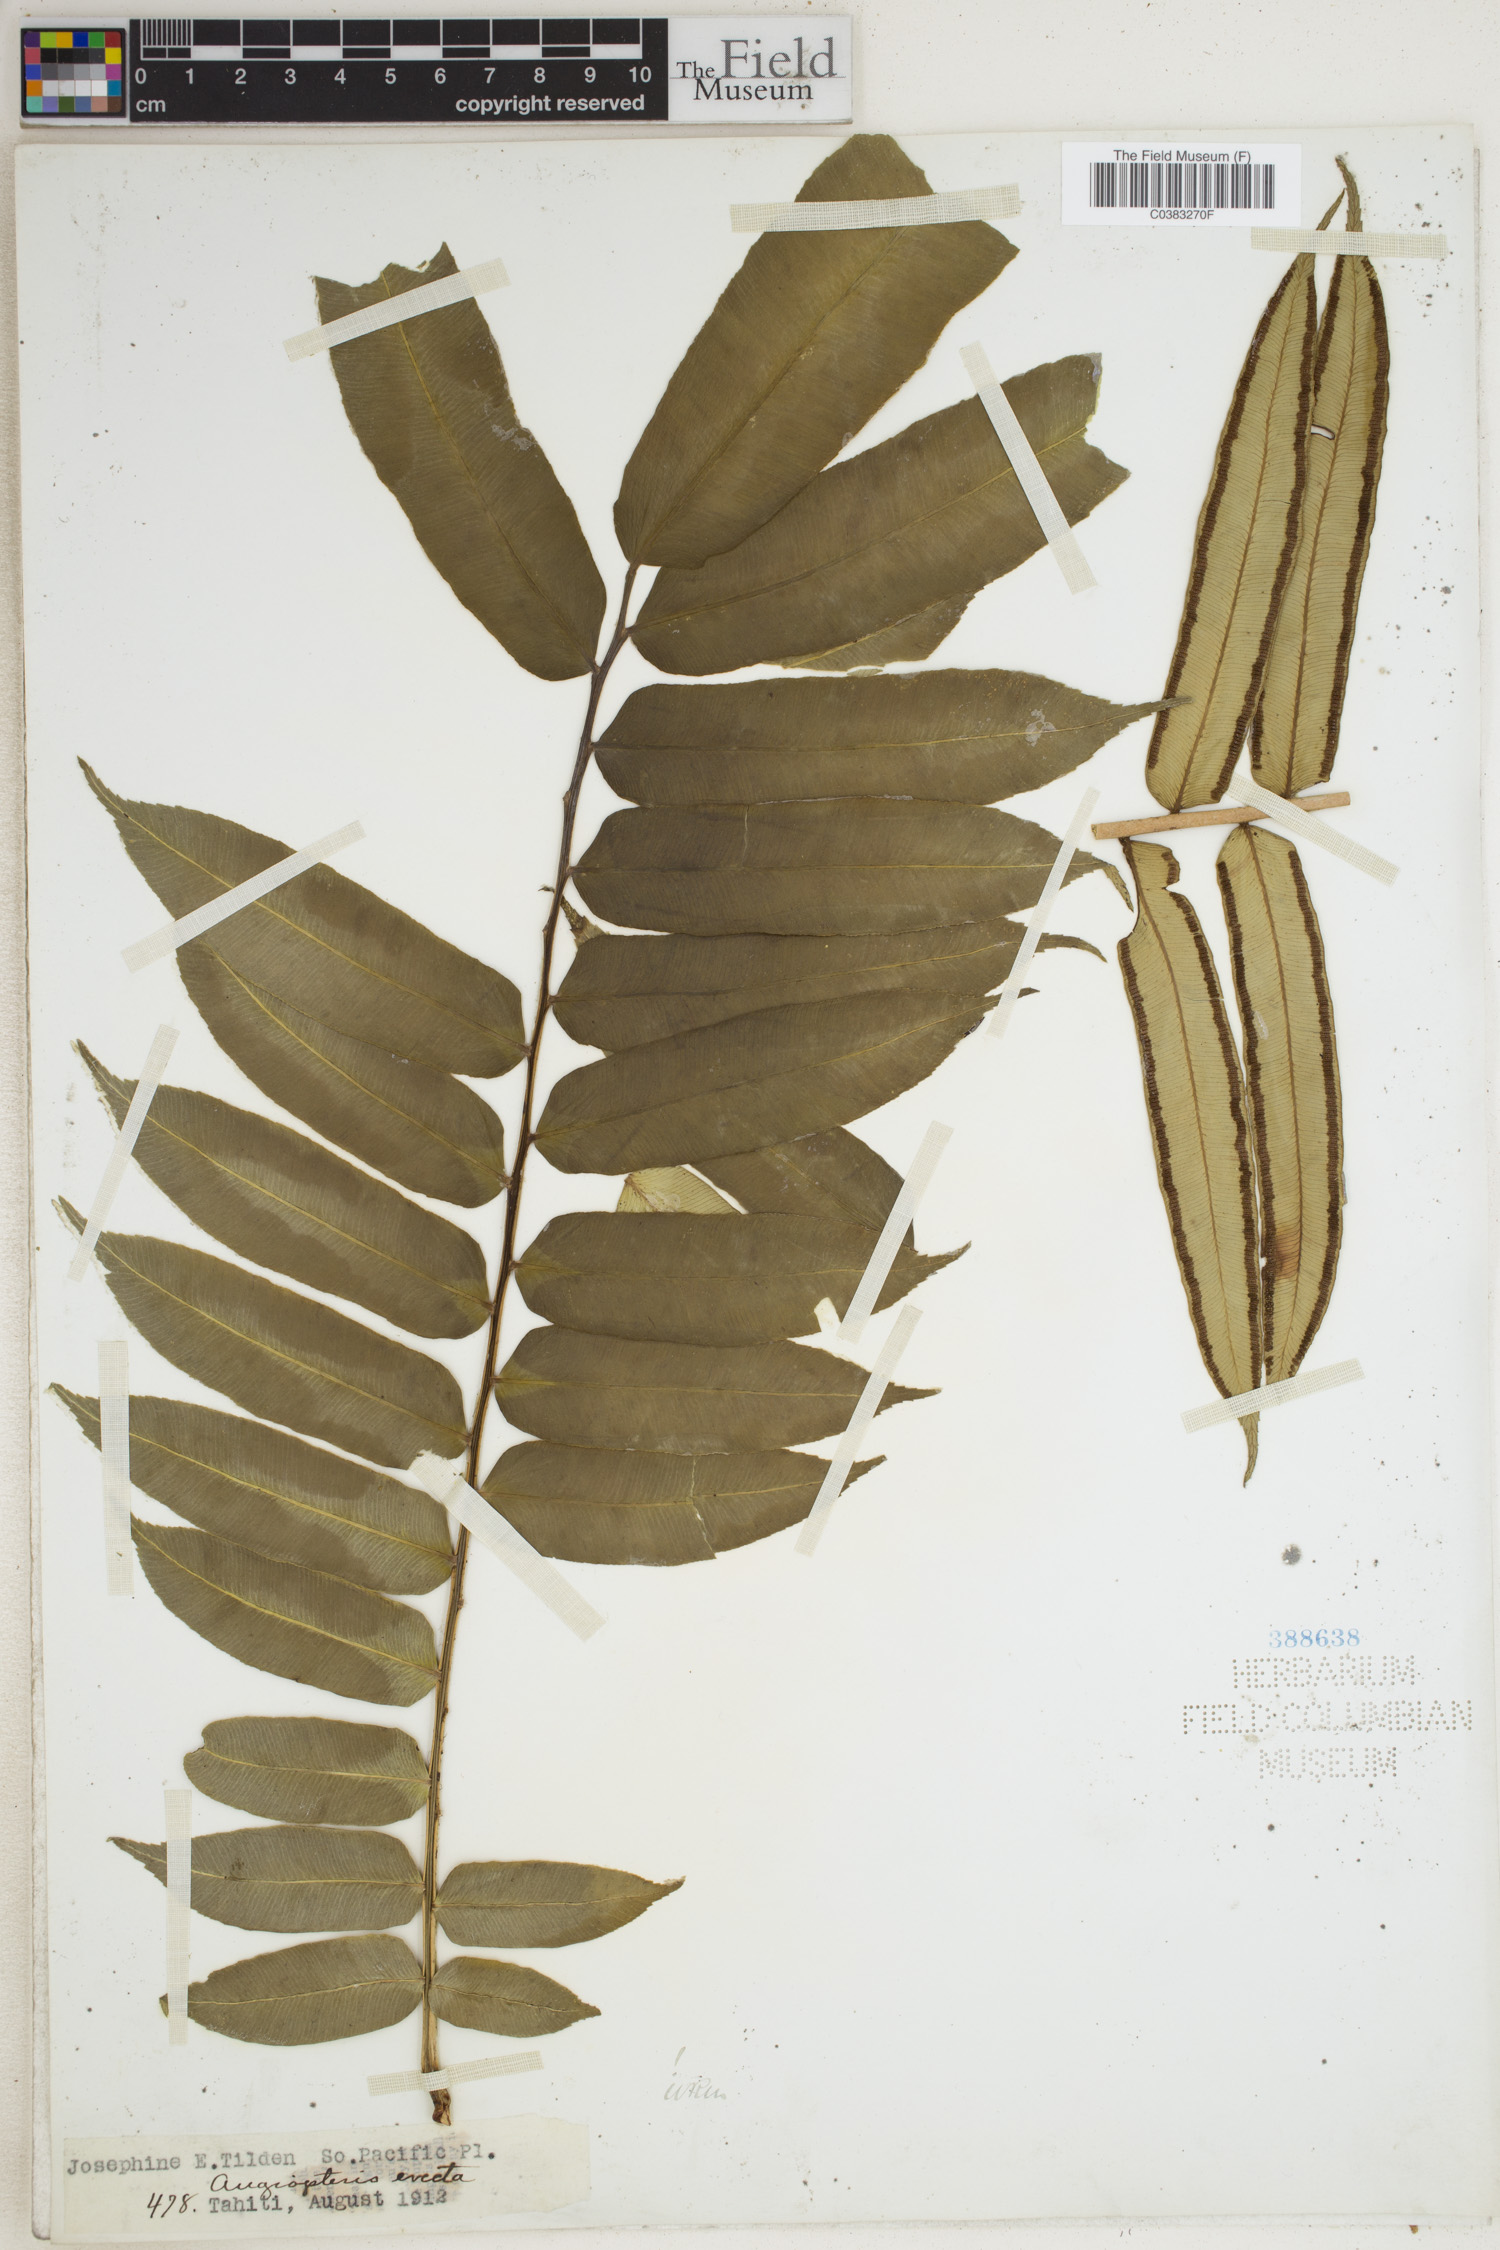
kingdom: Plantae
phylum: Tracheophyta
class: Polypodiopsida
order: Marattiales
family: Marattiaceae
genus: Angiopteris
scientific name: Angiopteris evecta
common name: Mule's-foot fern
